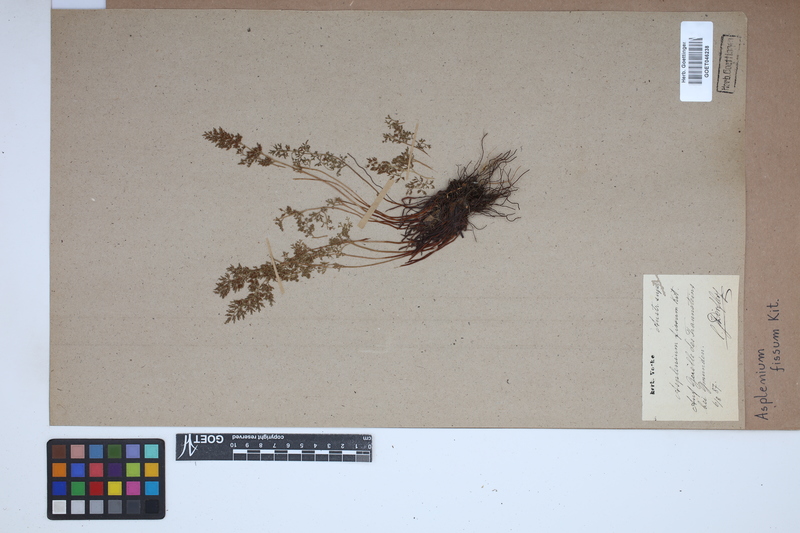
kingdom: Plantae
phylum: Tracheophyta
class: Polypodiopsida
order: Polypodiales
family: Aspleniaceae
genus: Asplenium
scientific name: Asplenium fissum
